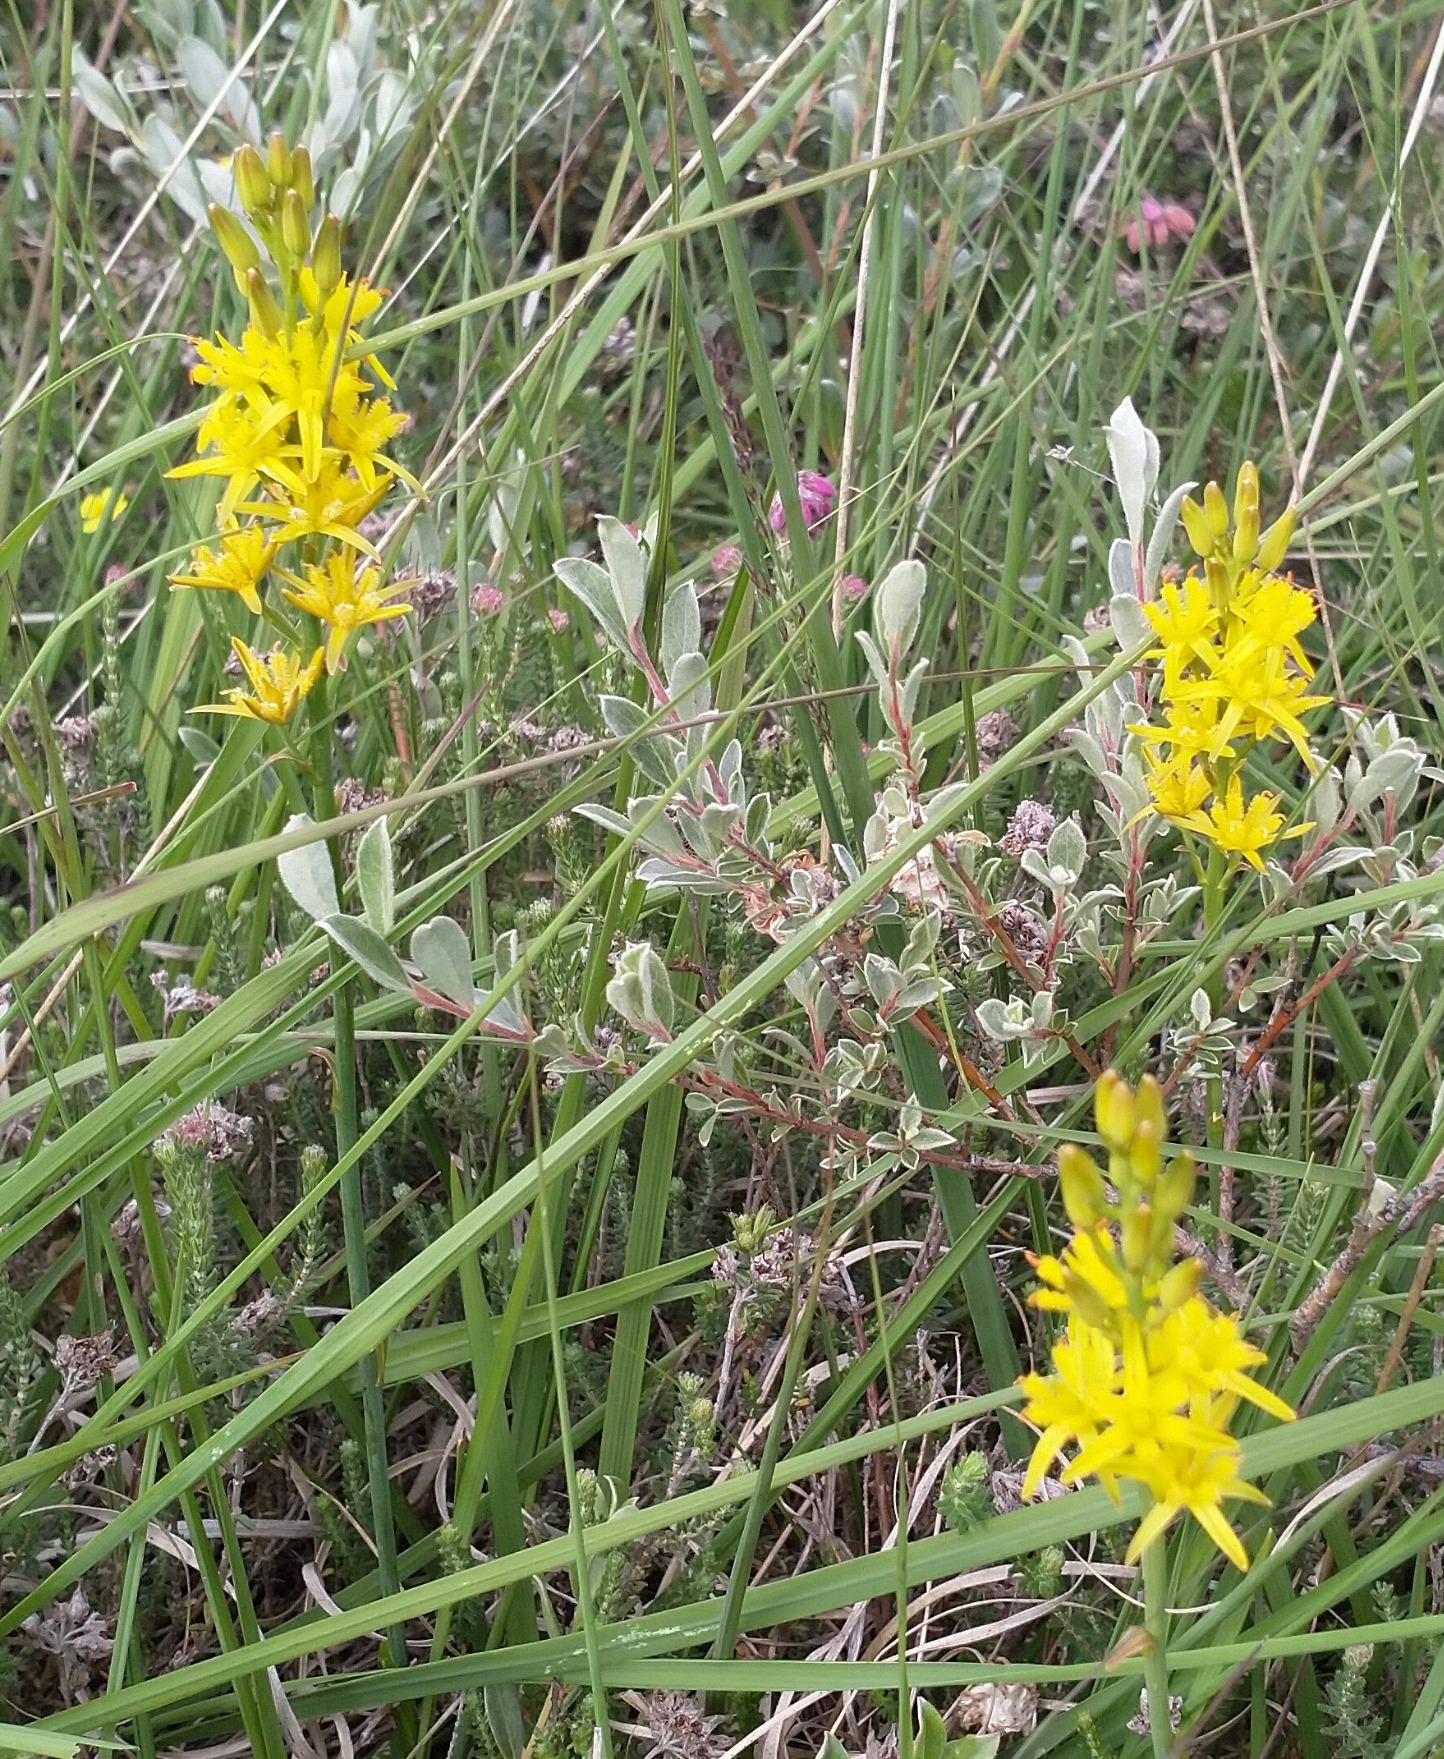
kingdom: Plantae
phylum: Tracheophyta
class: Liliopsida
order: Dioscoreales
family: Nartheciaceae
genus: Narthecium
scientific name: Narthecium ossifragum
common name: Benbræk
